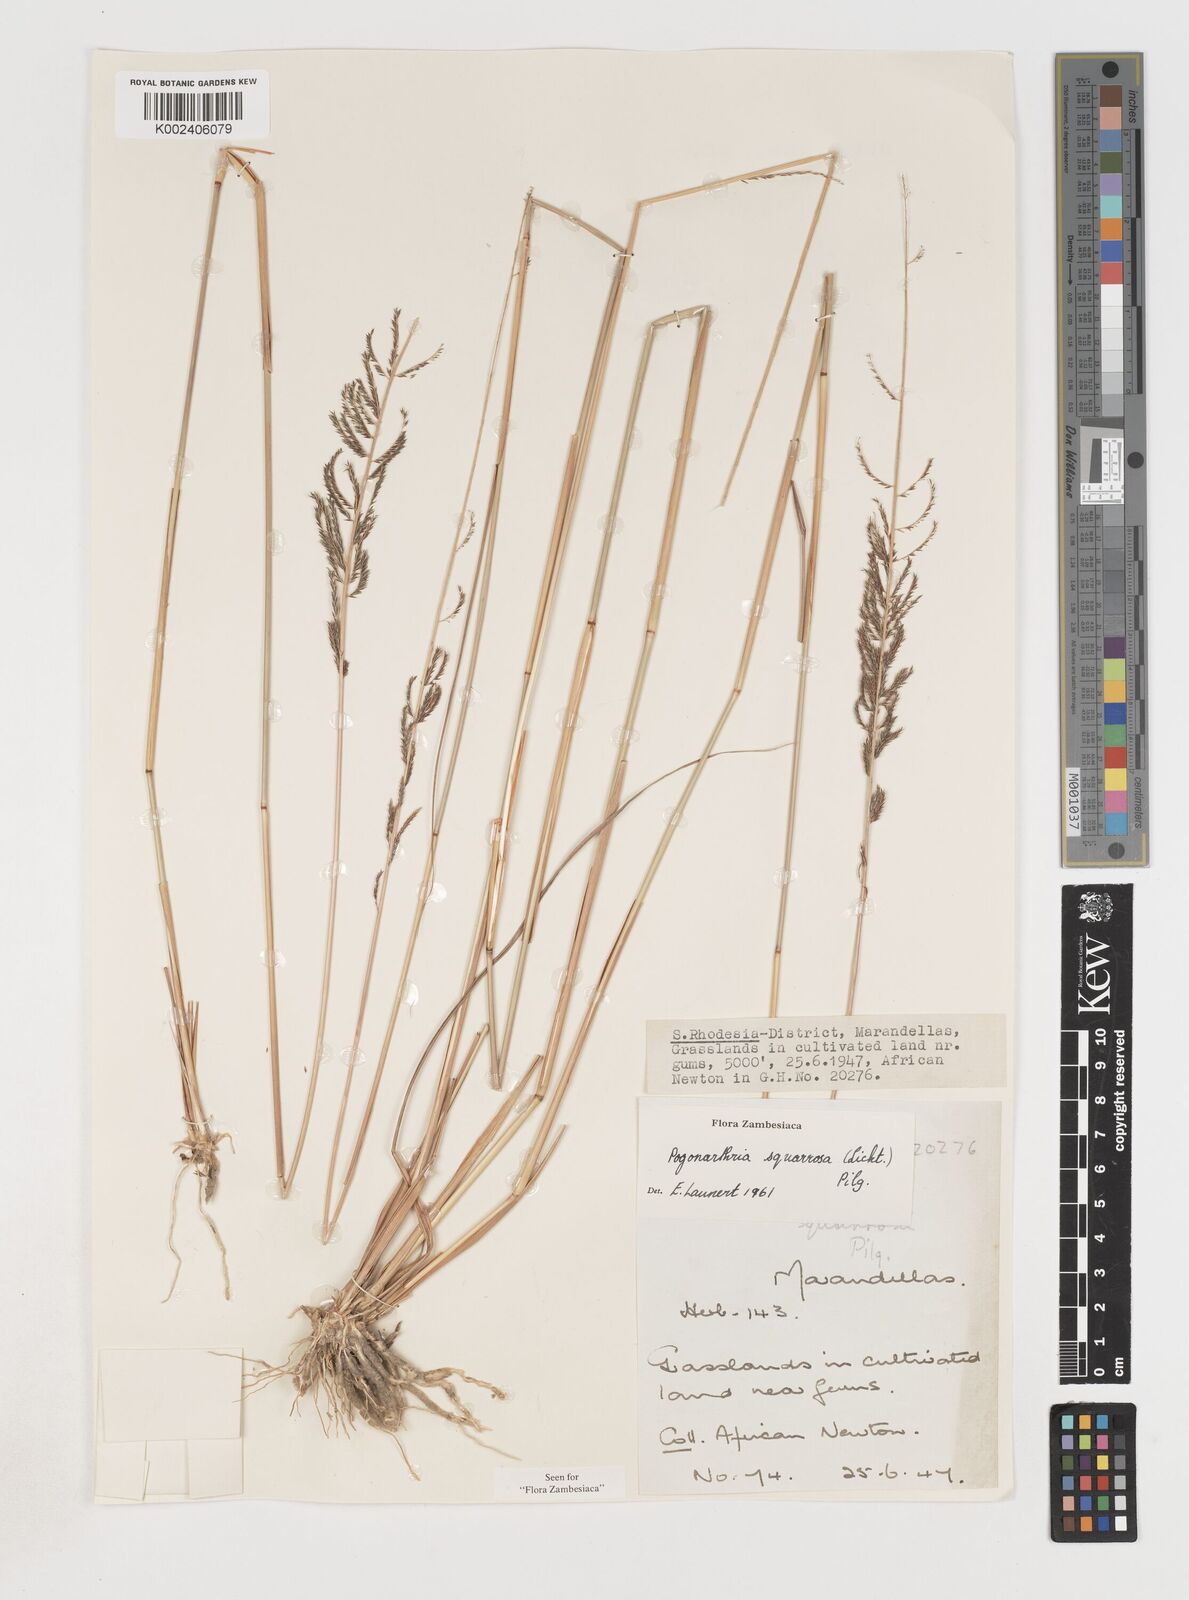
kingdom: Plantae
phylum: Tracheophyta
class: Liliopsida
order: Poales
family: Poaceae
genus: Pogonarthria
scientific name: Pogonarthria squarrosa
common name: Grass
